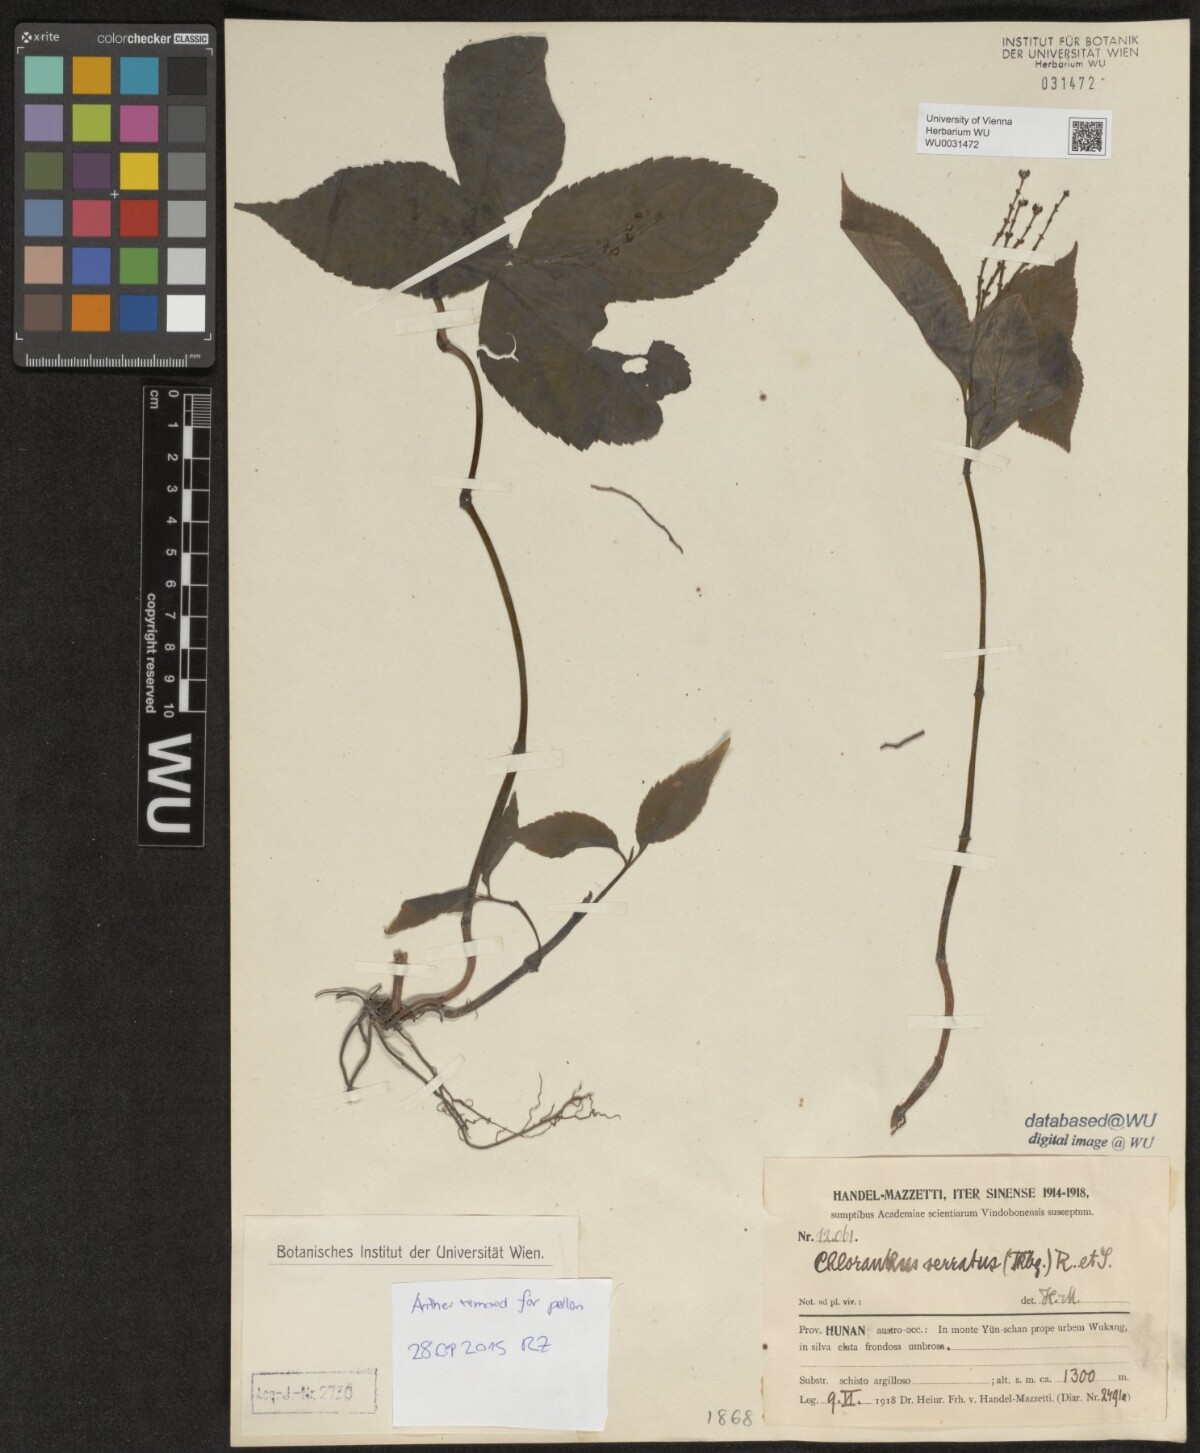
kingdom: Plantae
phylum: Tracheophyta
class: Magnoliopsida
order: Chloranthales
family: Chloranthaceae
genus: Chloranthus
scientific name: Chloranthus serratus
